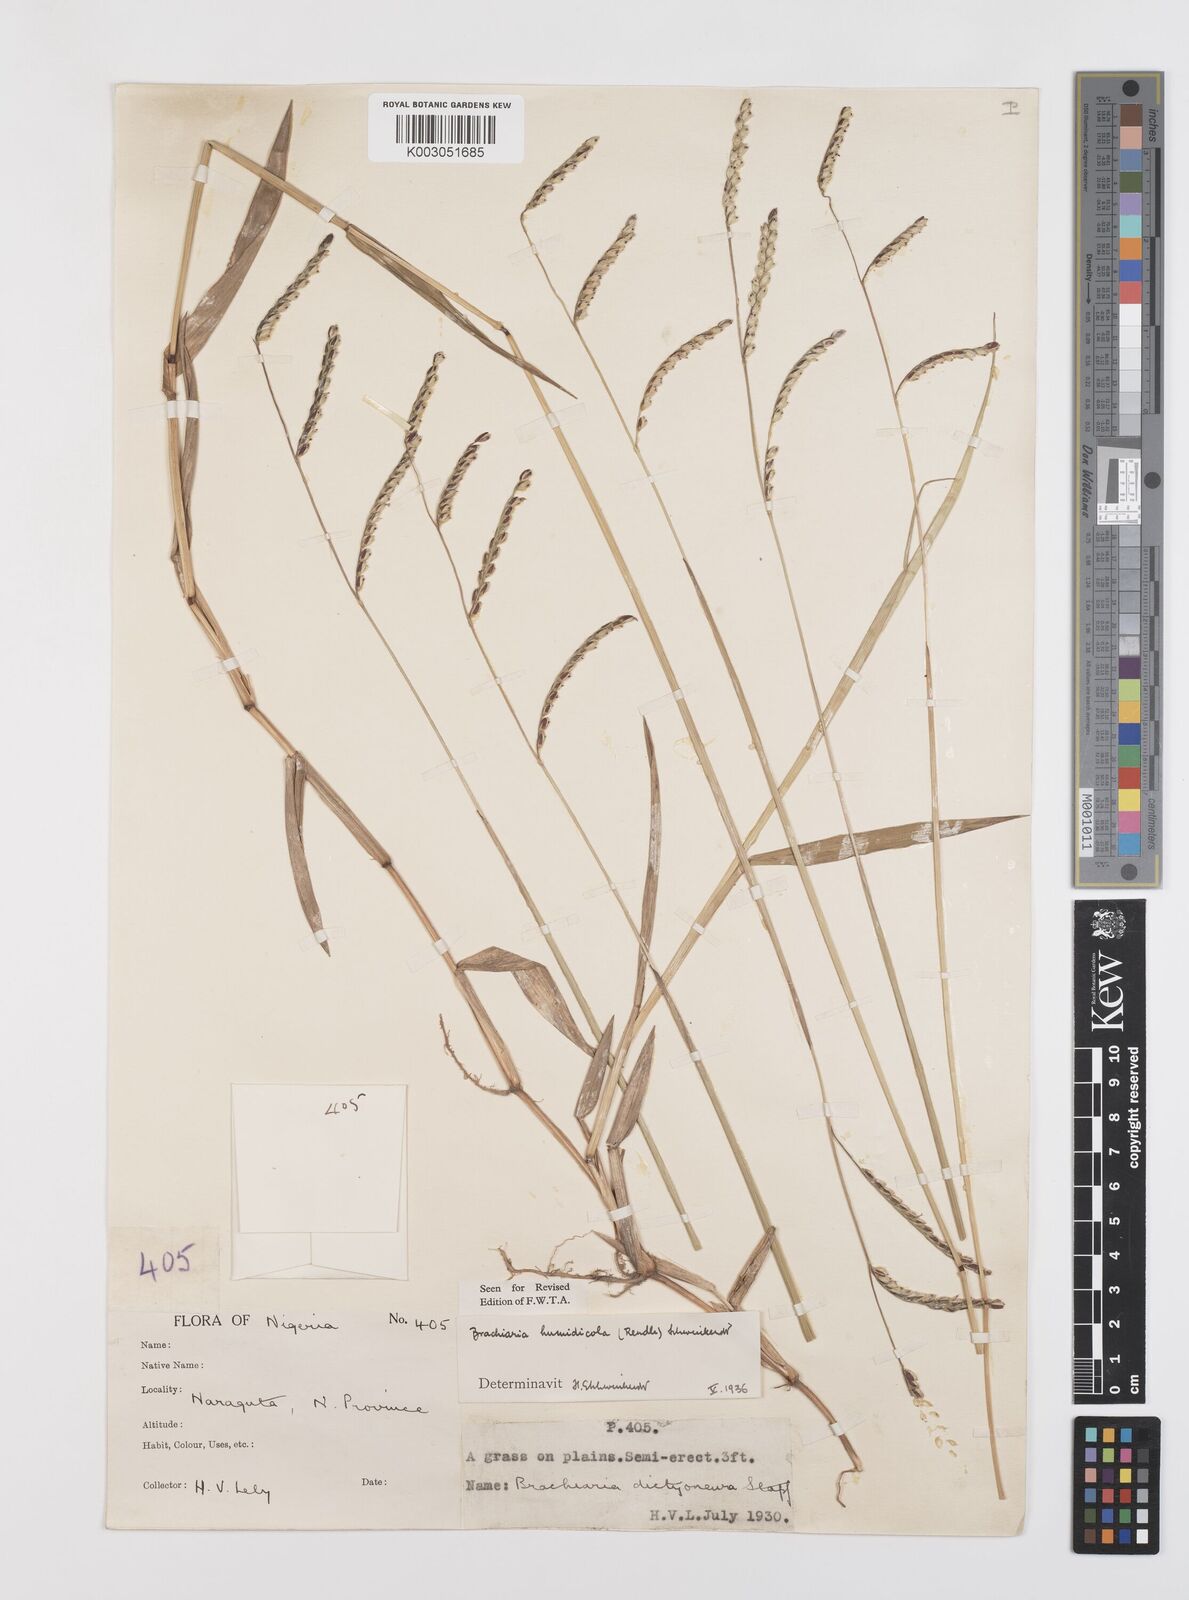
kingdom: Plantae
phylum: Tracheophyta
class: Liliopsida
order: Poales
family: Poaceae
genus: Urochloa
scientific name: Urochloa dictyoneura
